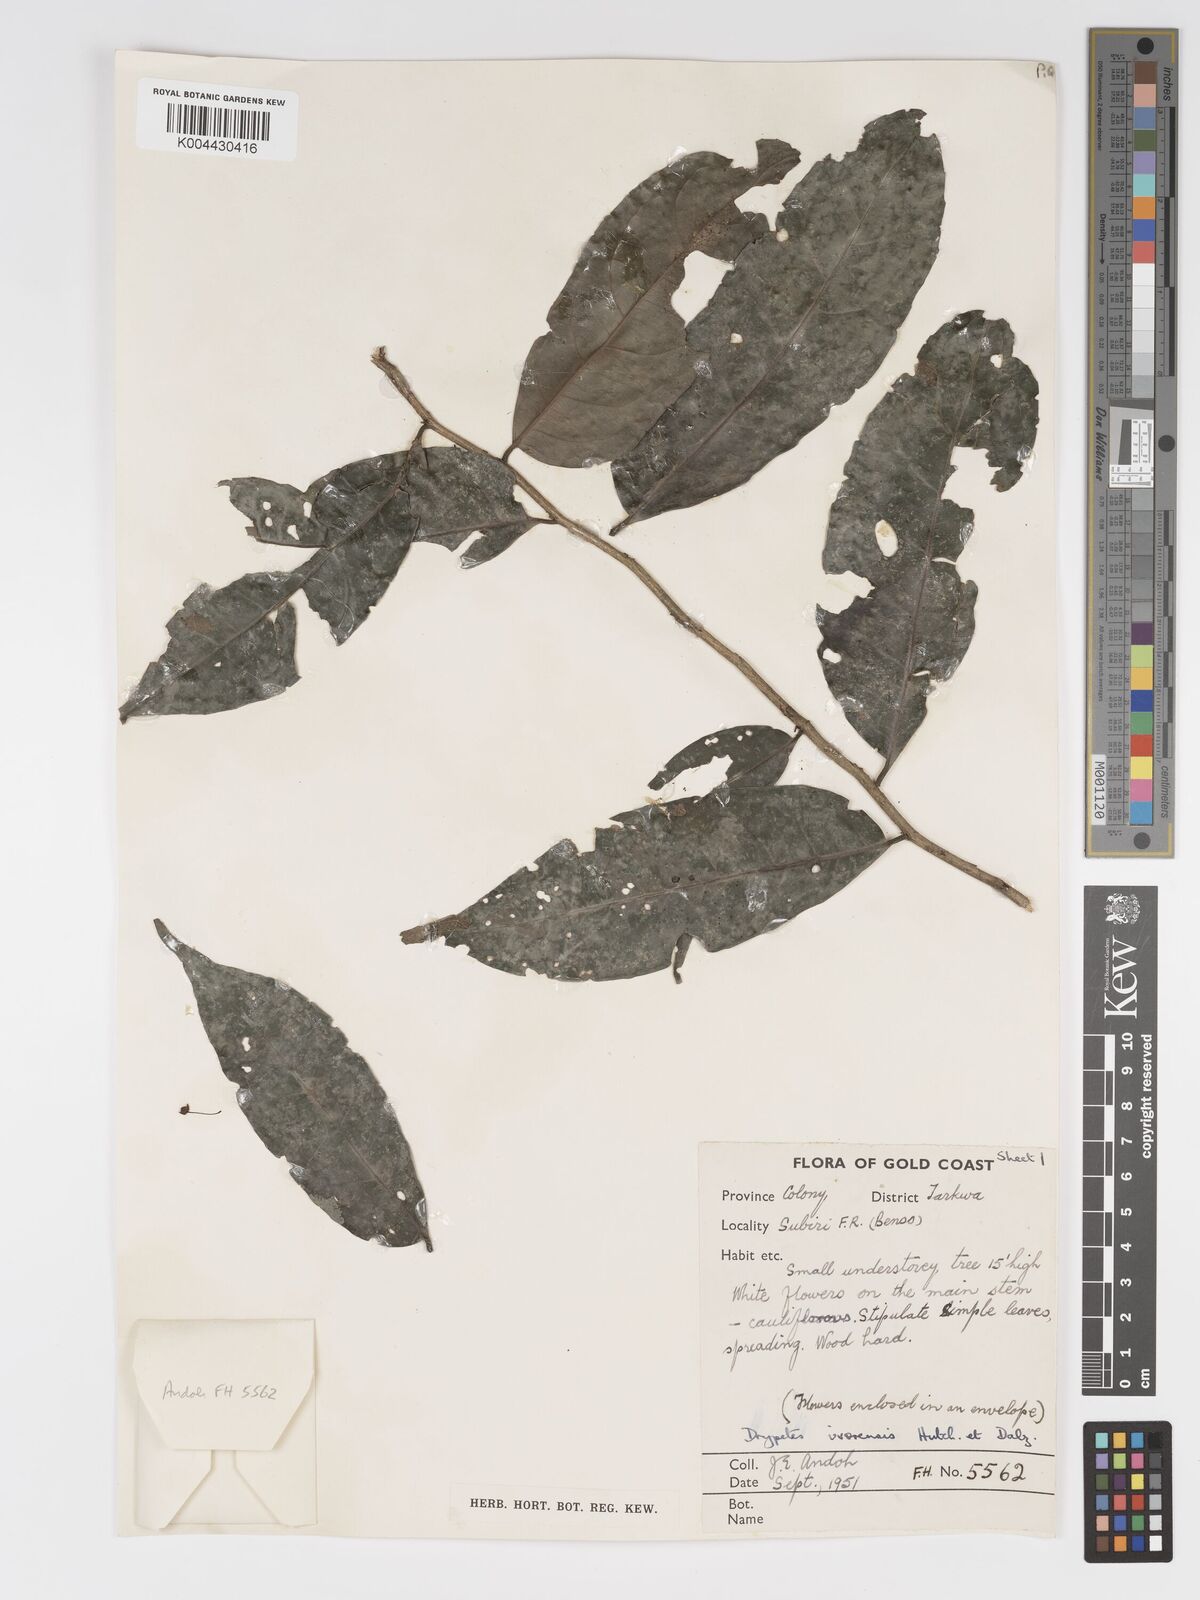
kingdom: Plantae
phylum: Tracheophyta
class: Magnoliopsida
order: Malpighiales
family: Putranjivaceae
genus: Drypetes
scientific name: Drypetes ivorensis
